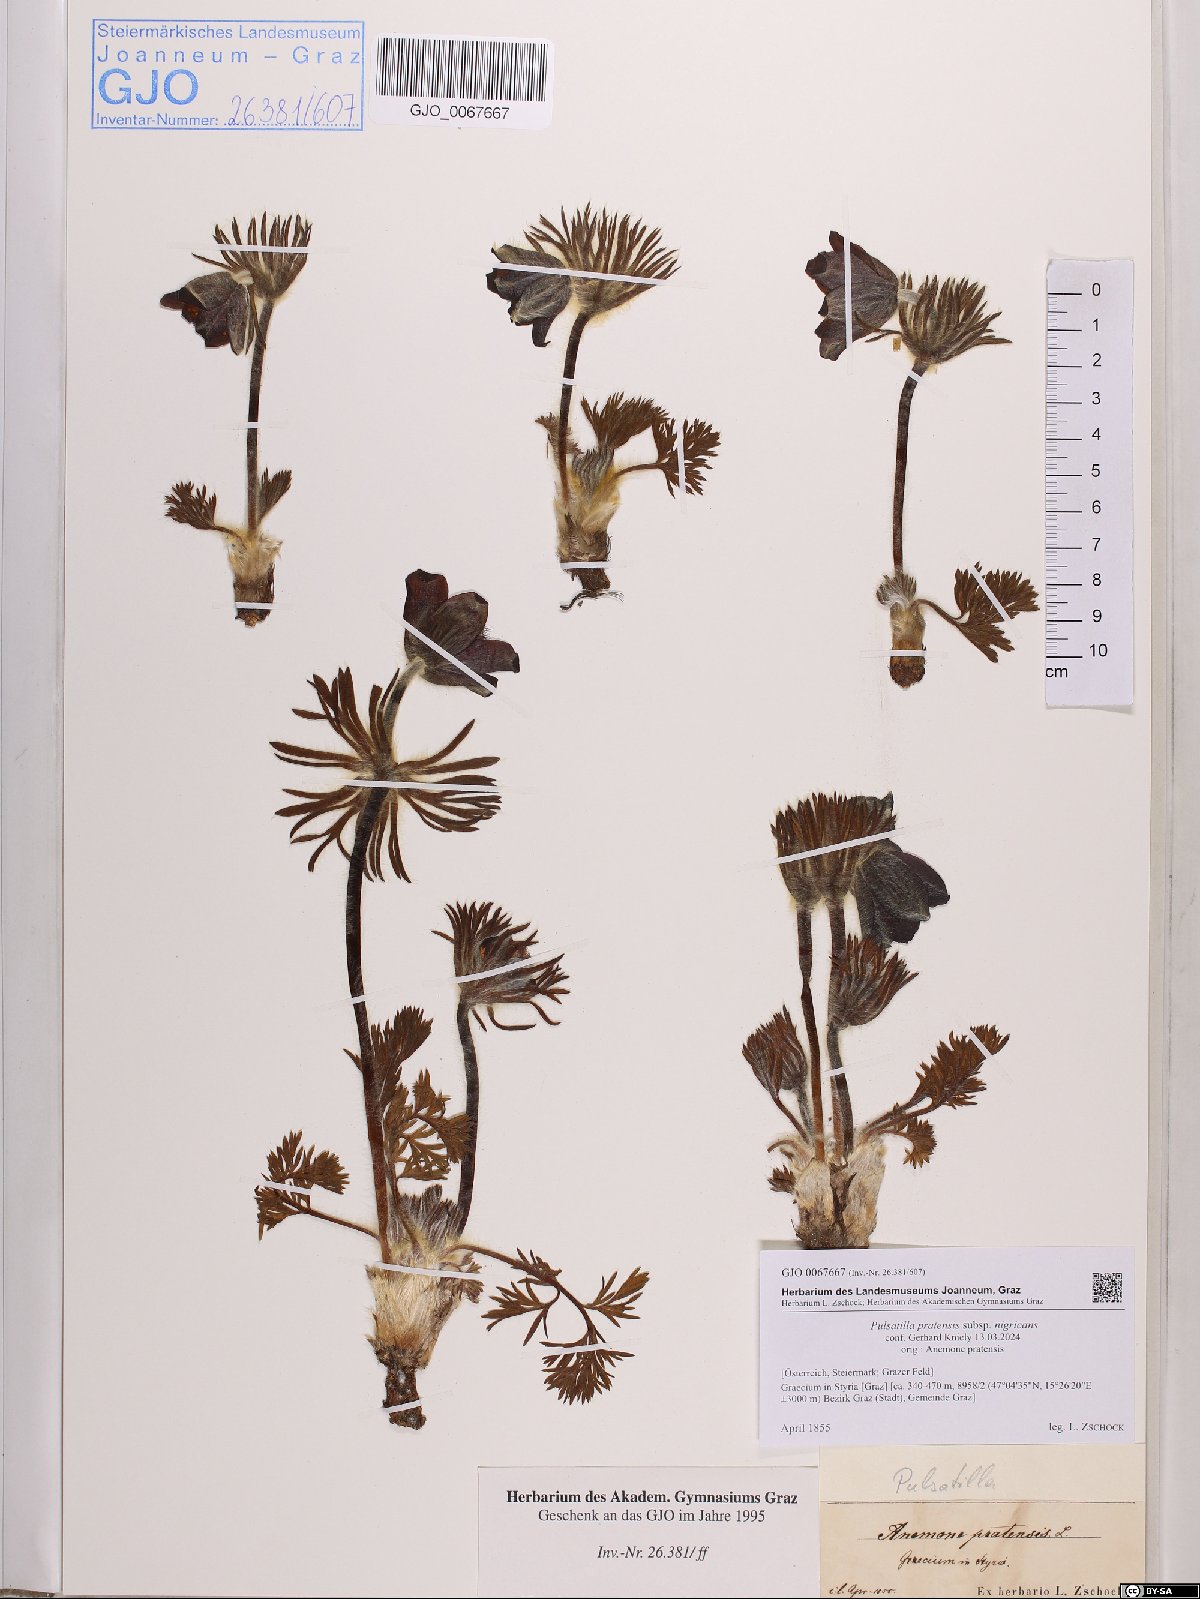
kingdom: Plantae
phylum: Tracheophyta
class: Magnoliopsida
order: Ranunculales
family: Ranunculaceae
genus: Pulsatilla
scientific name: Pulsatilla pratensis
